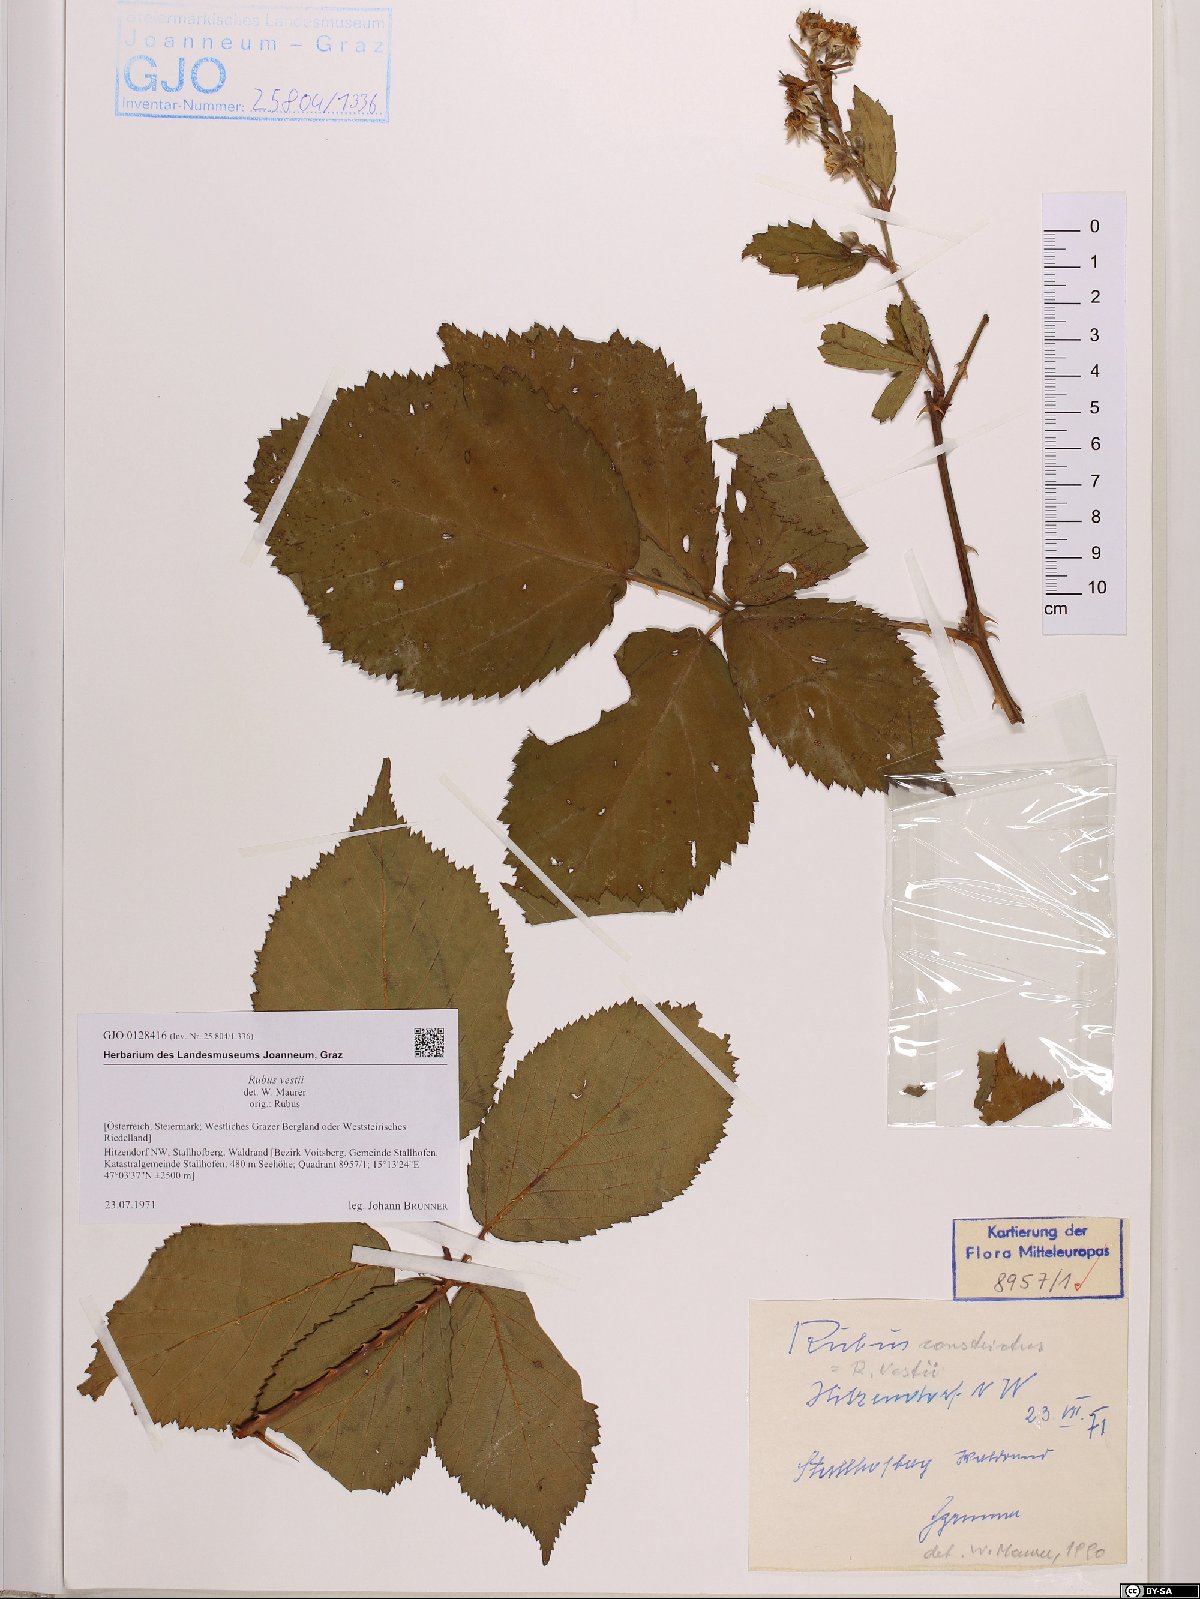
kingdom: Plantae
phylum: Tracheophyta
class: Magnoliopsida
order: Rosales
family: Rosaceae
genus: Rubus
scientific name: Rubus constrictus
